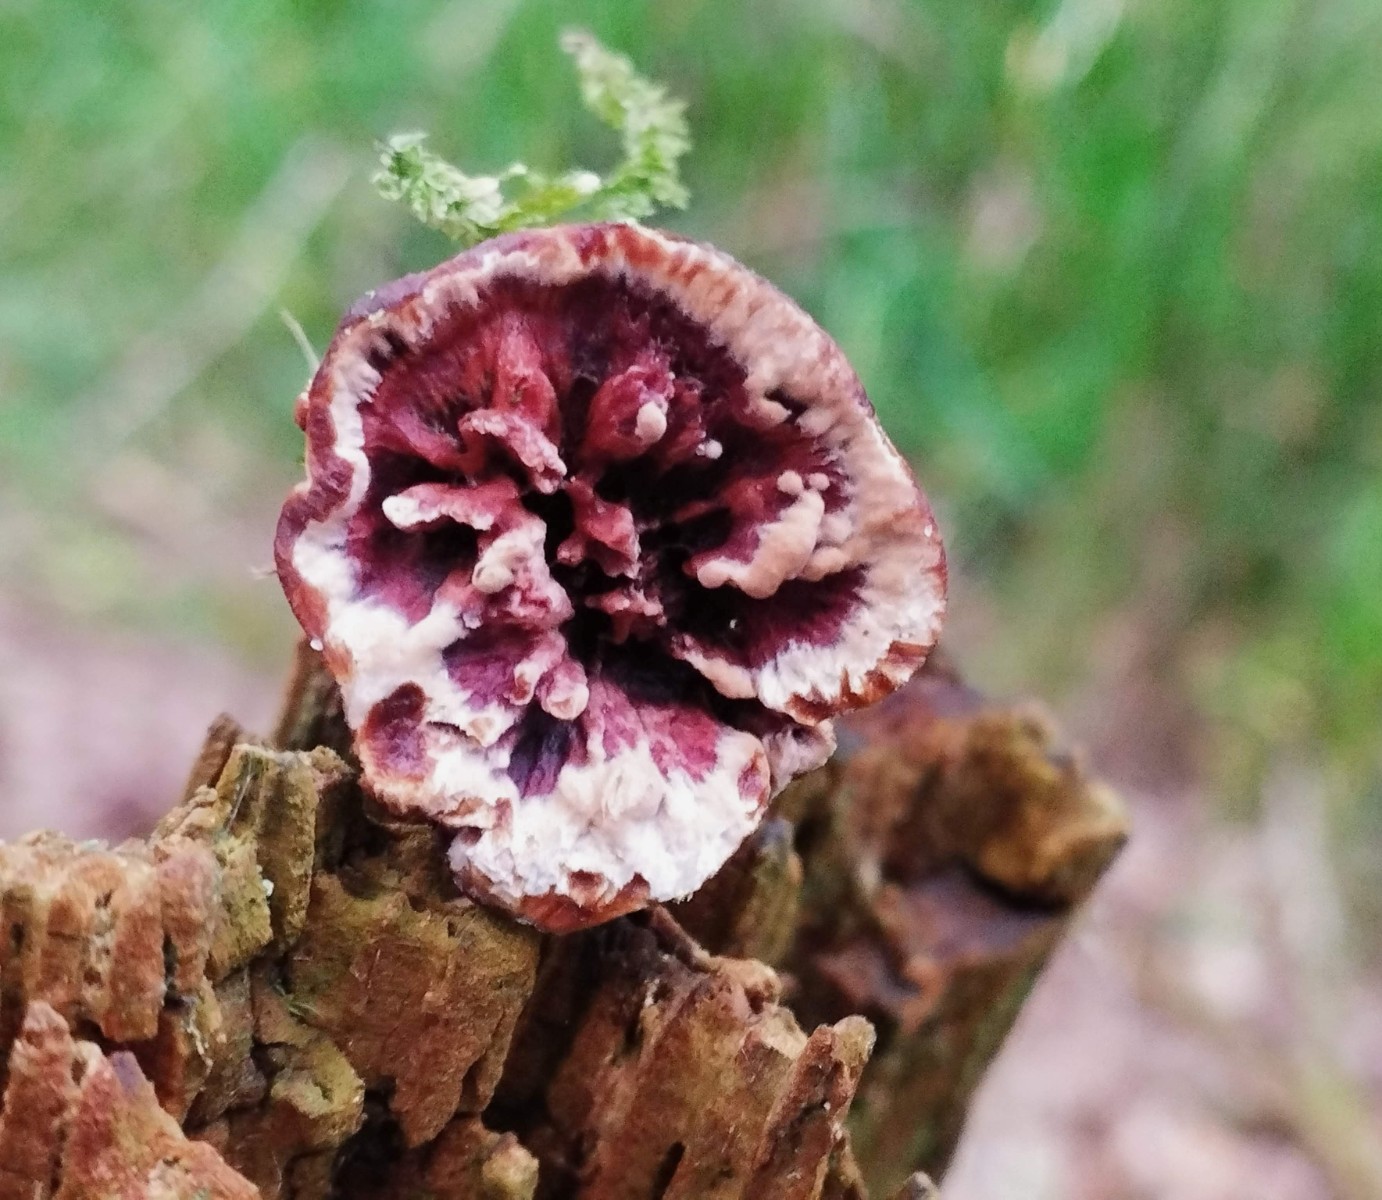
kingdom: Fungi
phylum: Basidiomycota
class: Agaricomycetes
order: Thelephorales
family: Bankeraceae
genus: Hydnellum
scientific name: Hydnellum concrescens
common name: Zoned tooth
